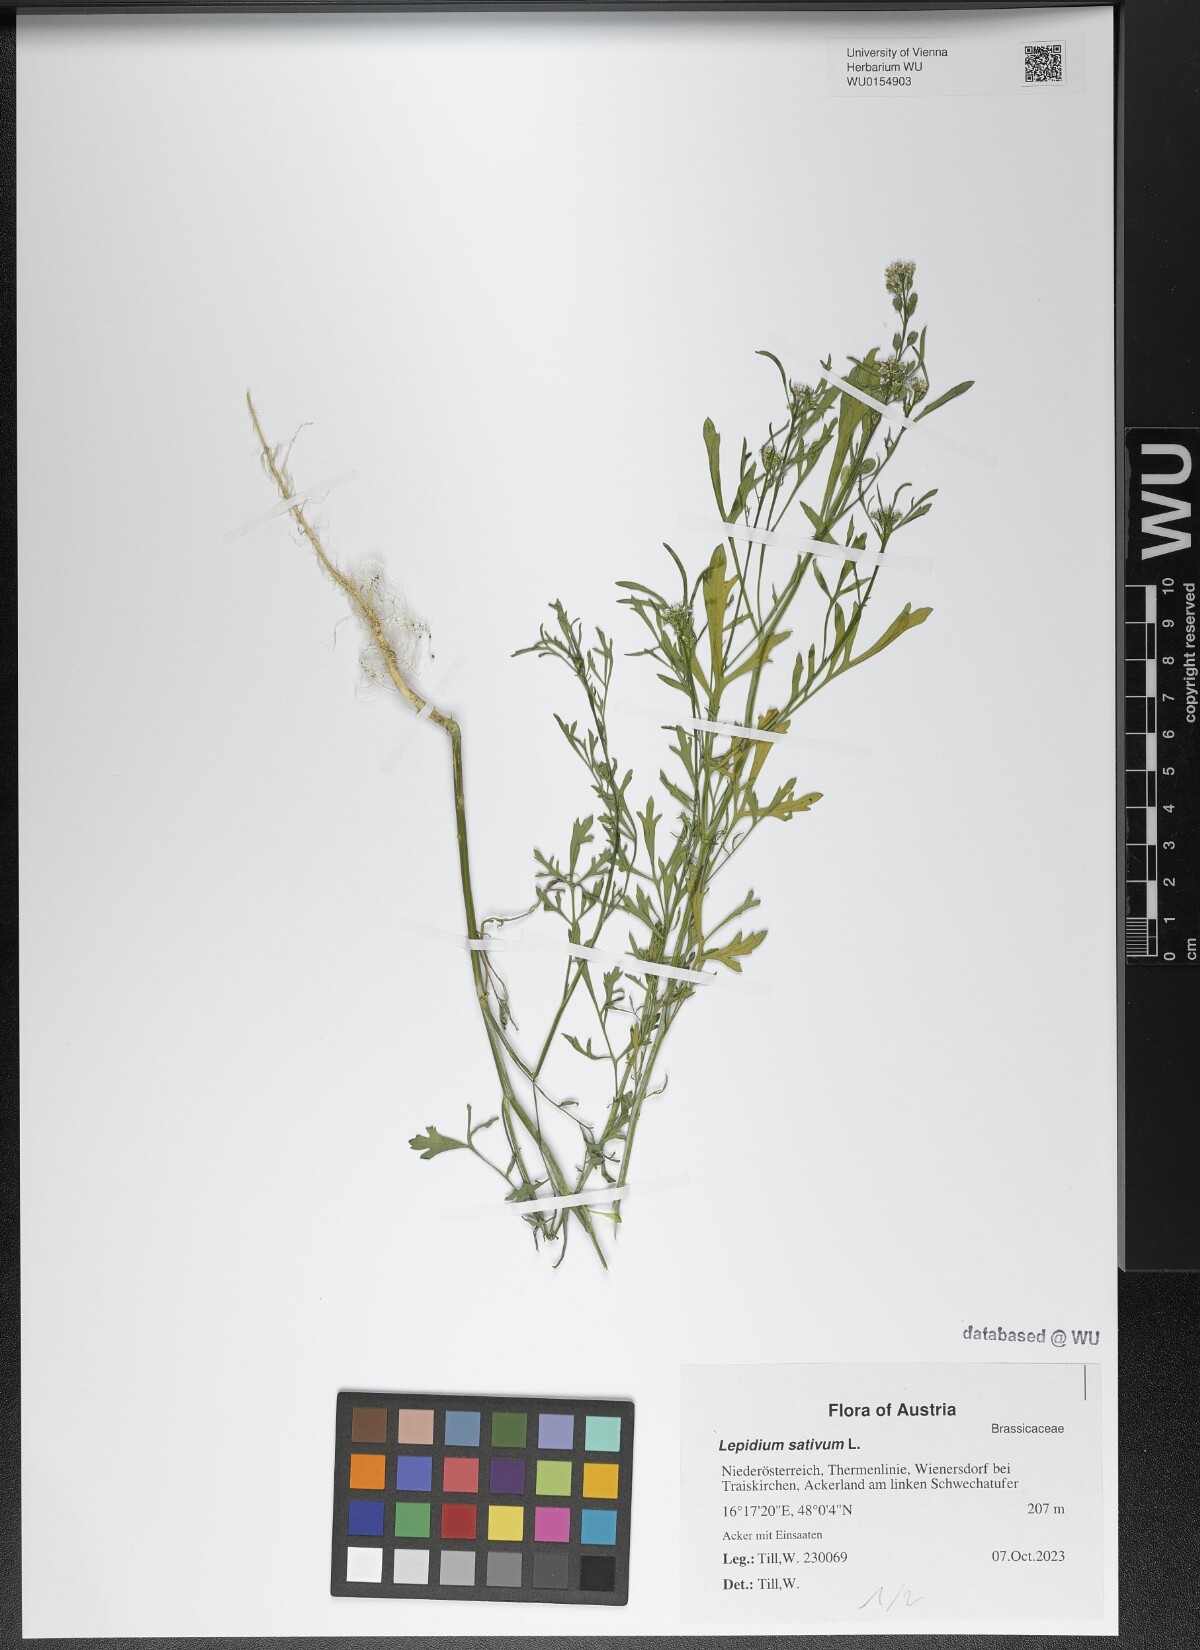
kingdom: Plantae
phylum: Tracheophyta
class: Magnoliopsida
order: Brassicales
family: Brassicaceae
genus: Lepidium
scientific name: Lepidium sativum
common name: Garden cress
